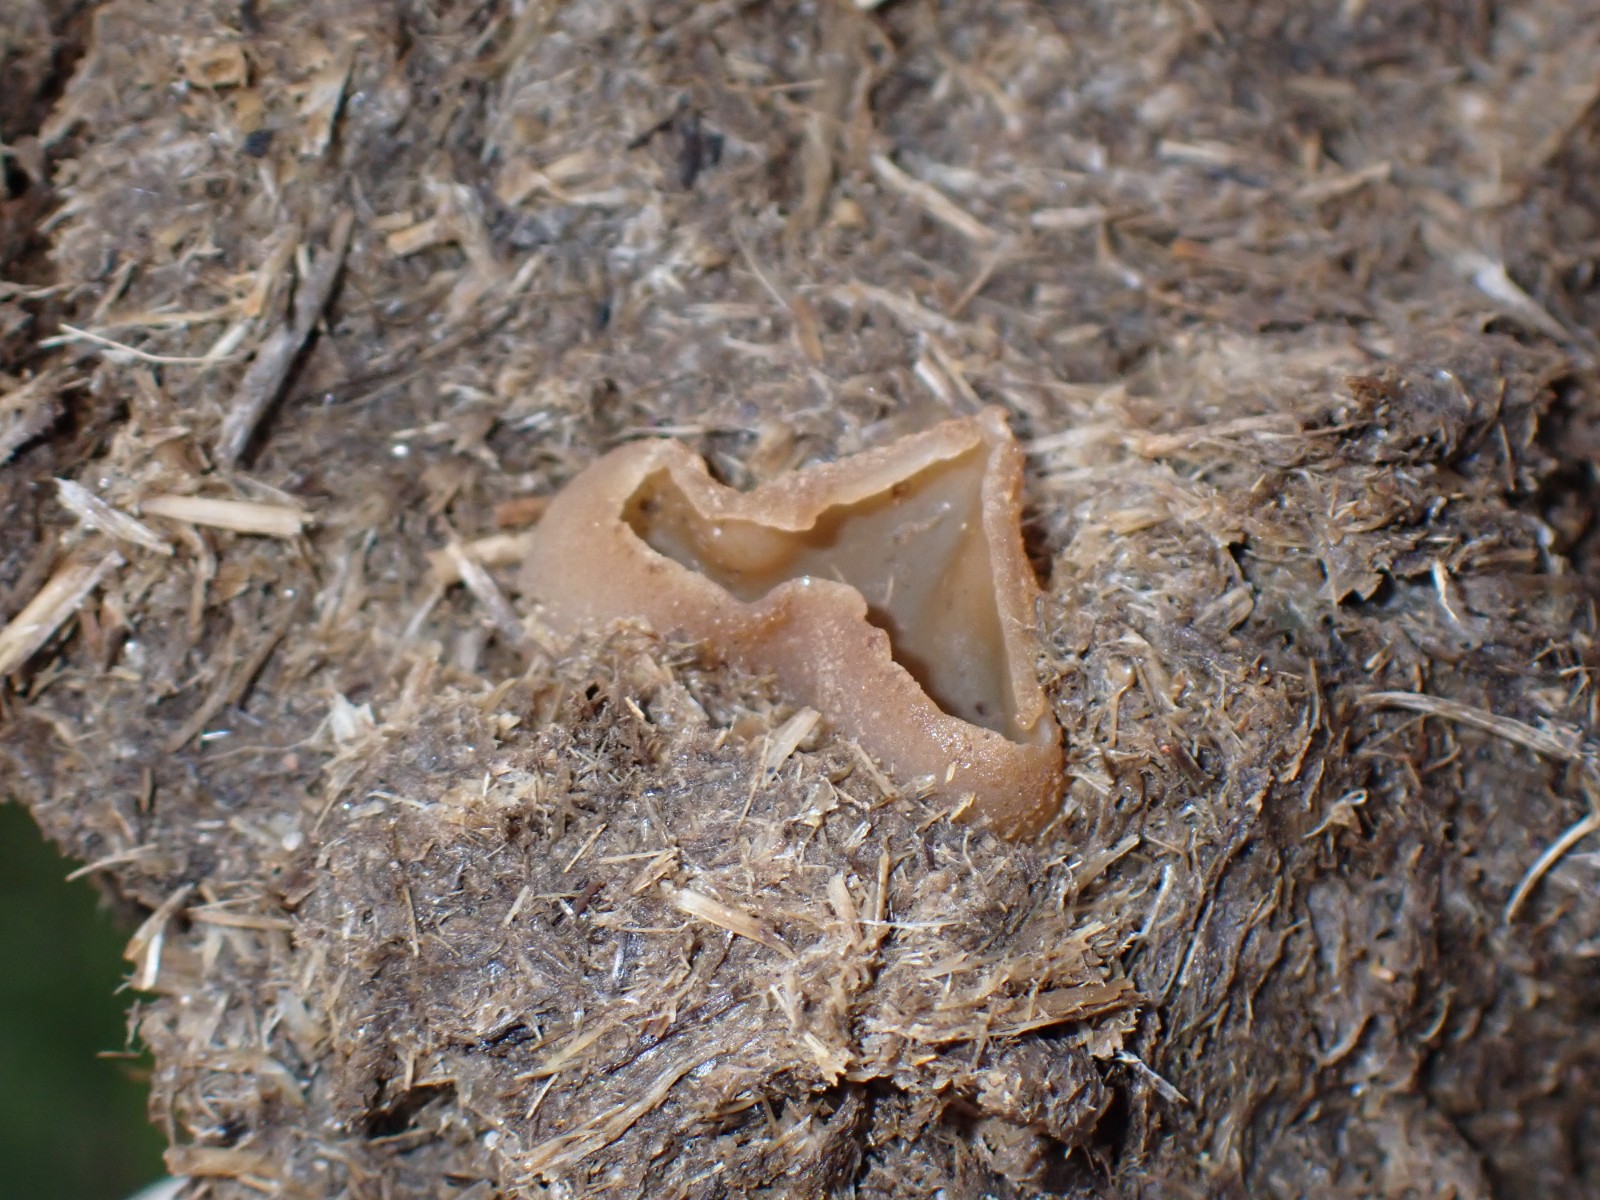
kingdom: Fungi
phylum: Ascomycota
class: Pezizomycetes
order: Pezizales
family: Pezizaceae
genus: Peziza
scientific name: Peziza fimeti
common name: møg-bægersvamp
